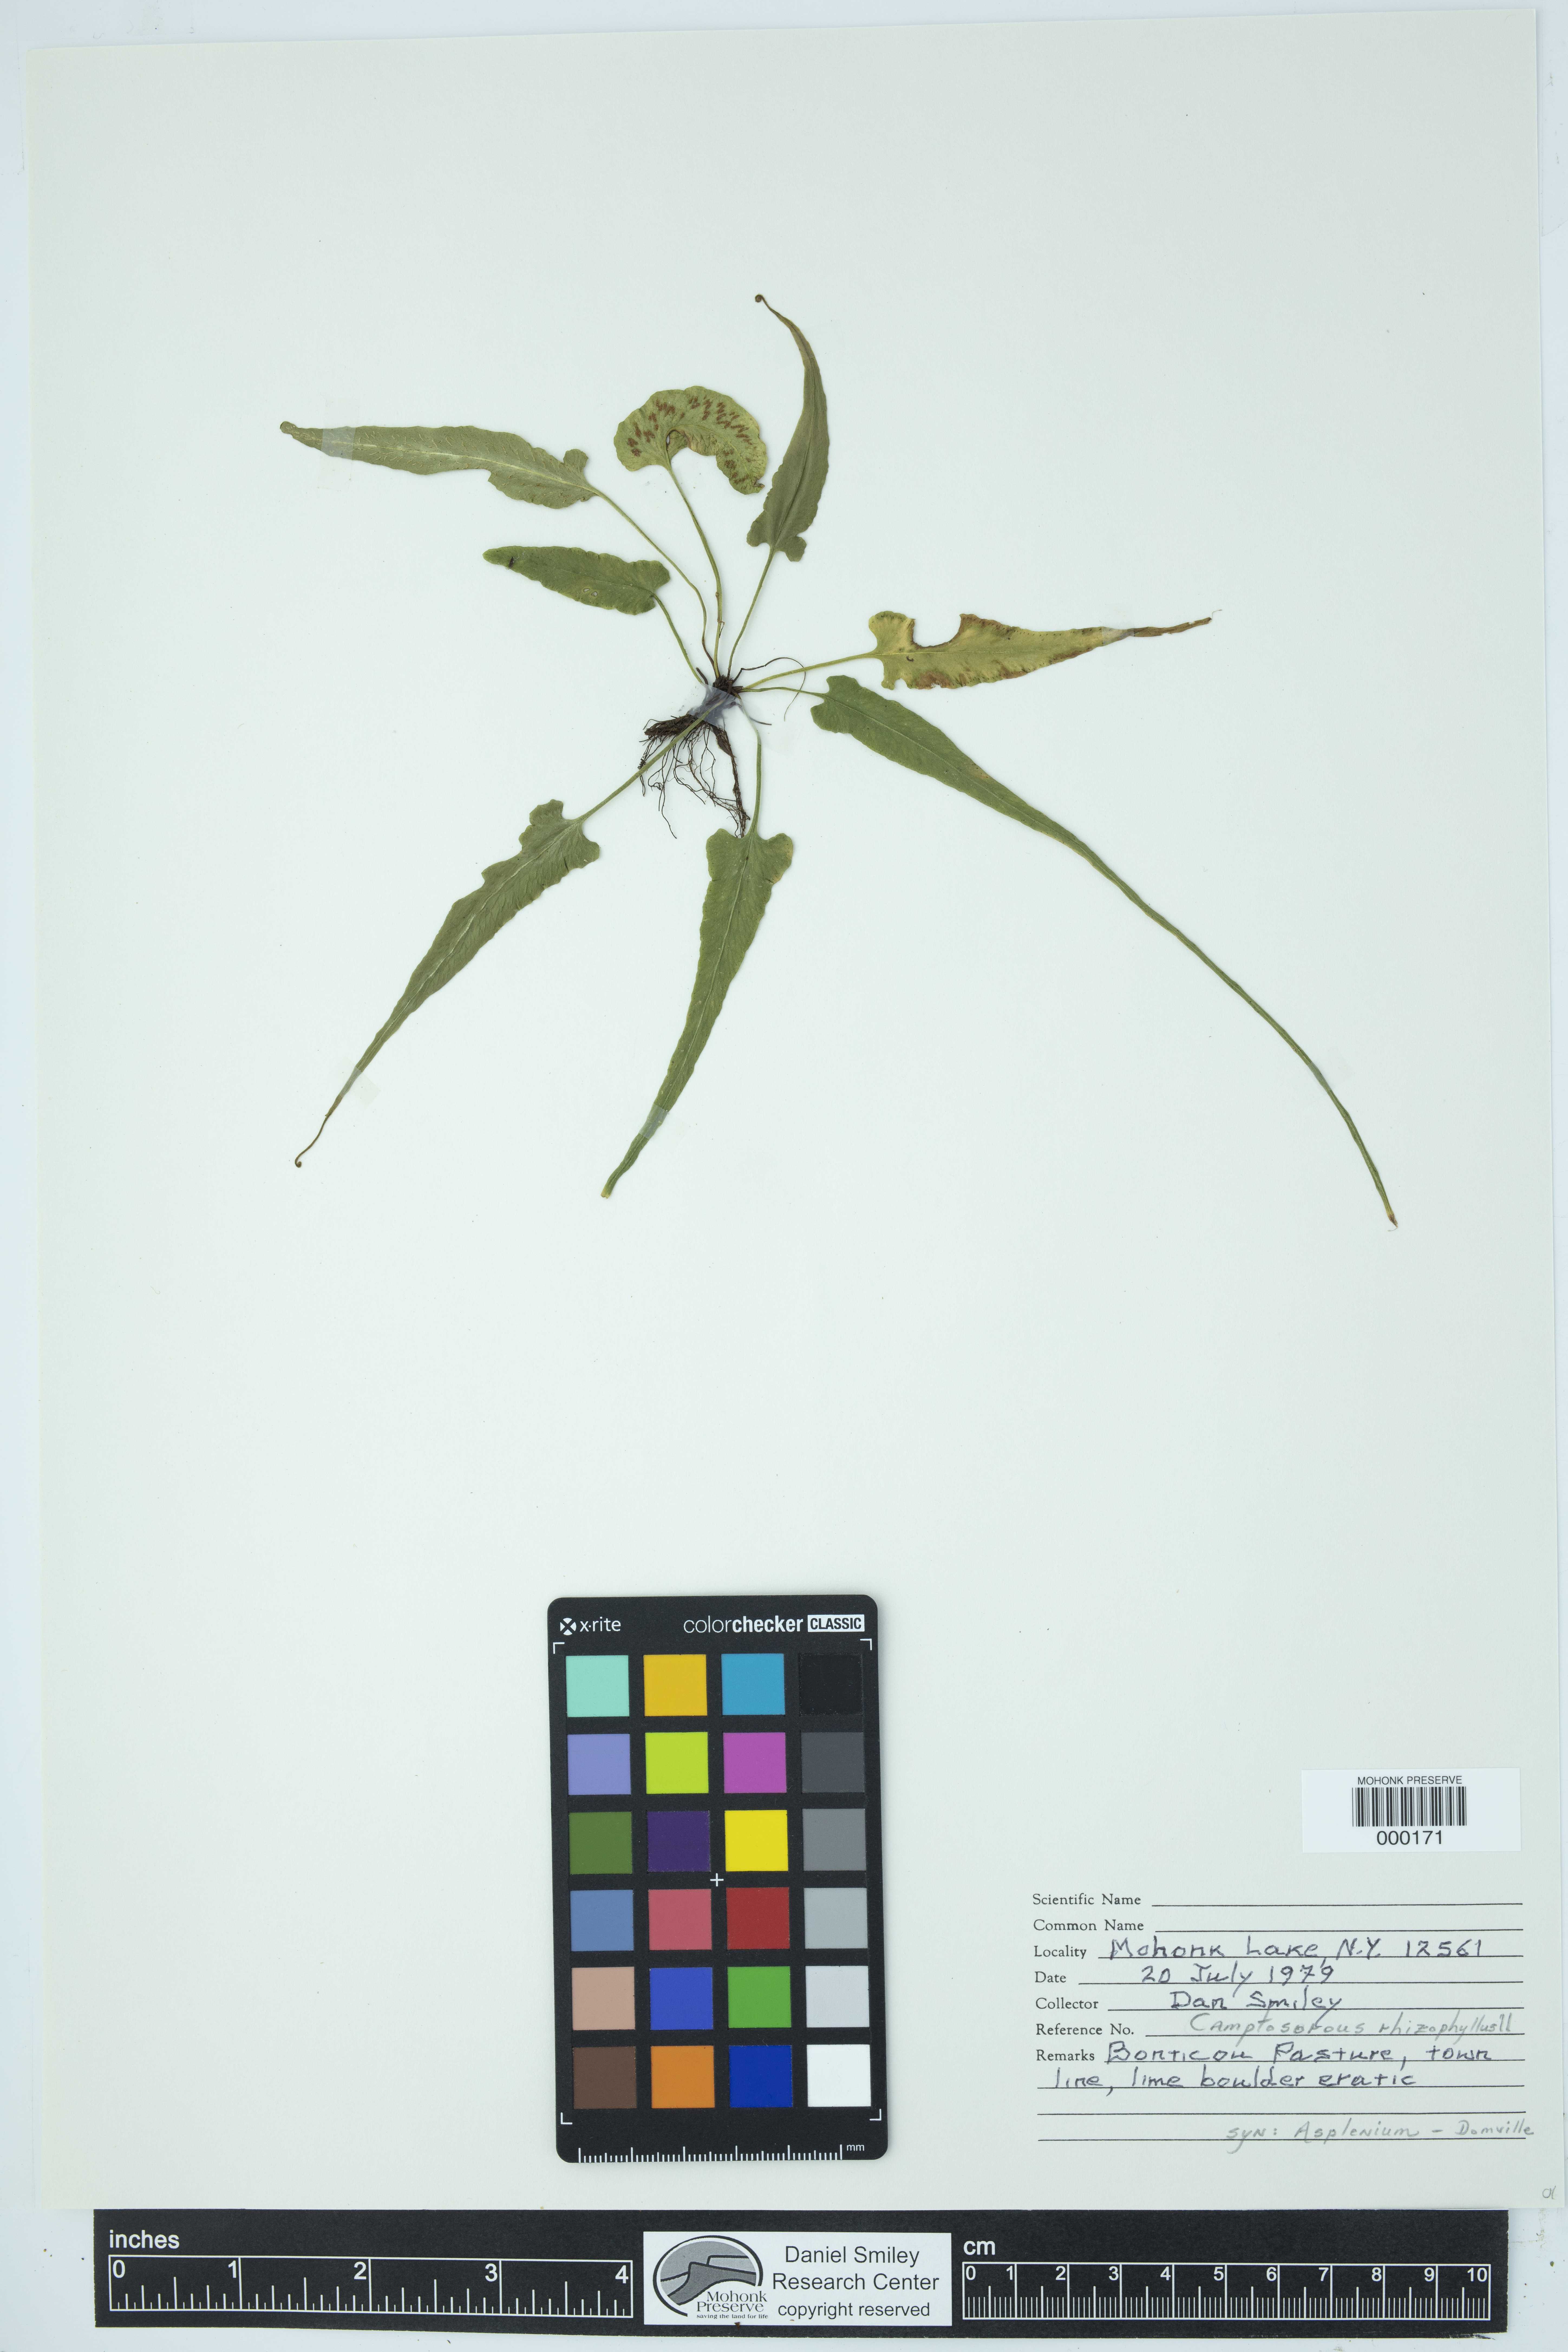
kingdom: Plantae
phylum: Tracheophyta
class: Polypodiopsida
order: Polypodiales
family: Aspleniaceae
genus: Asplenium
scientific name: Asplenium radicans
